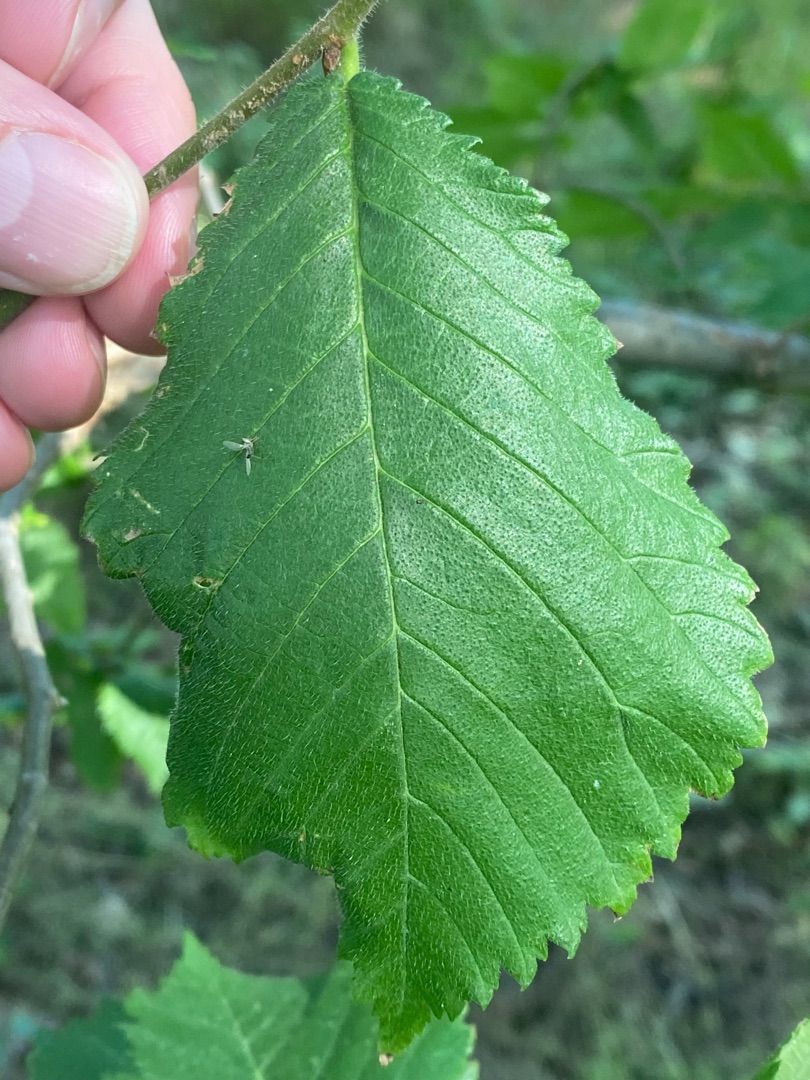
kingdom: Plantae
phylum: Tracheophyta
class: Magnoliopsida
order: Rosales
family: Ulmaceae
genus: Ulmus
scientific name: Ulmus glabra
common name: Skov-elm/storbladet elm
